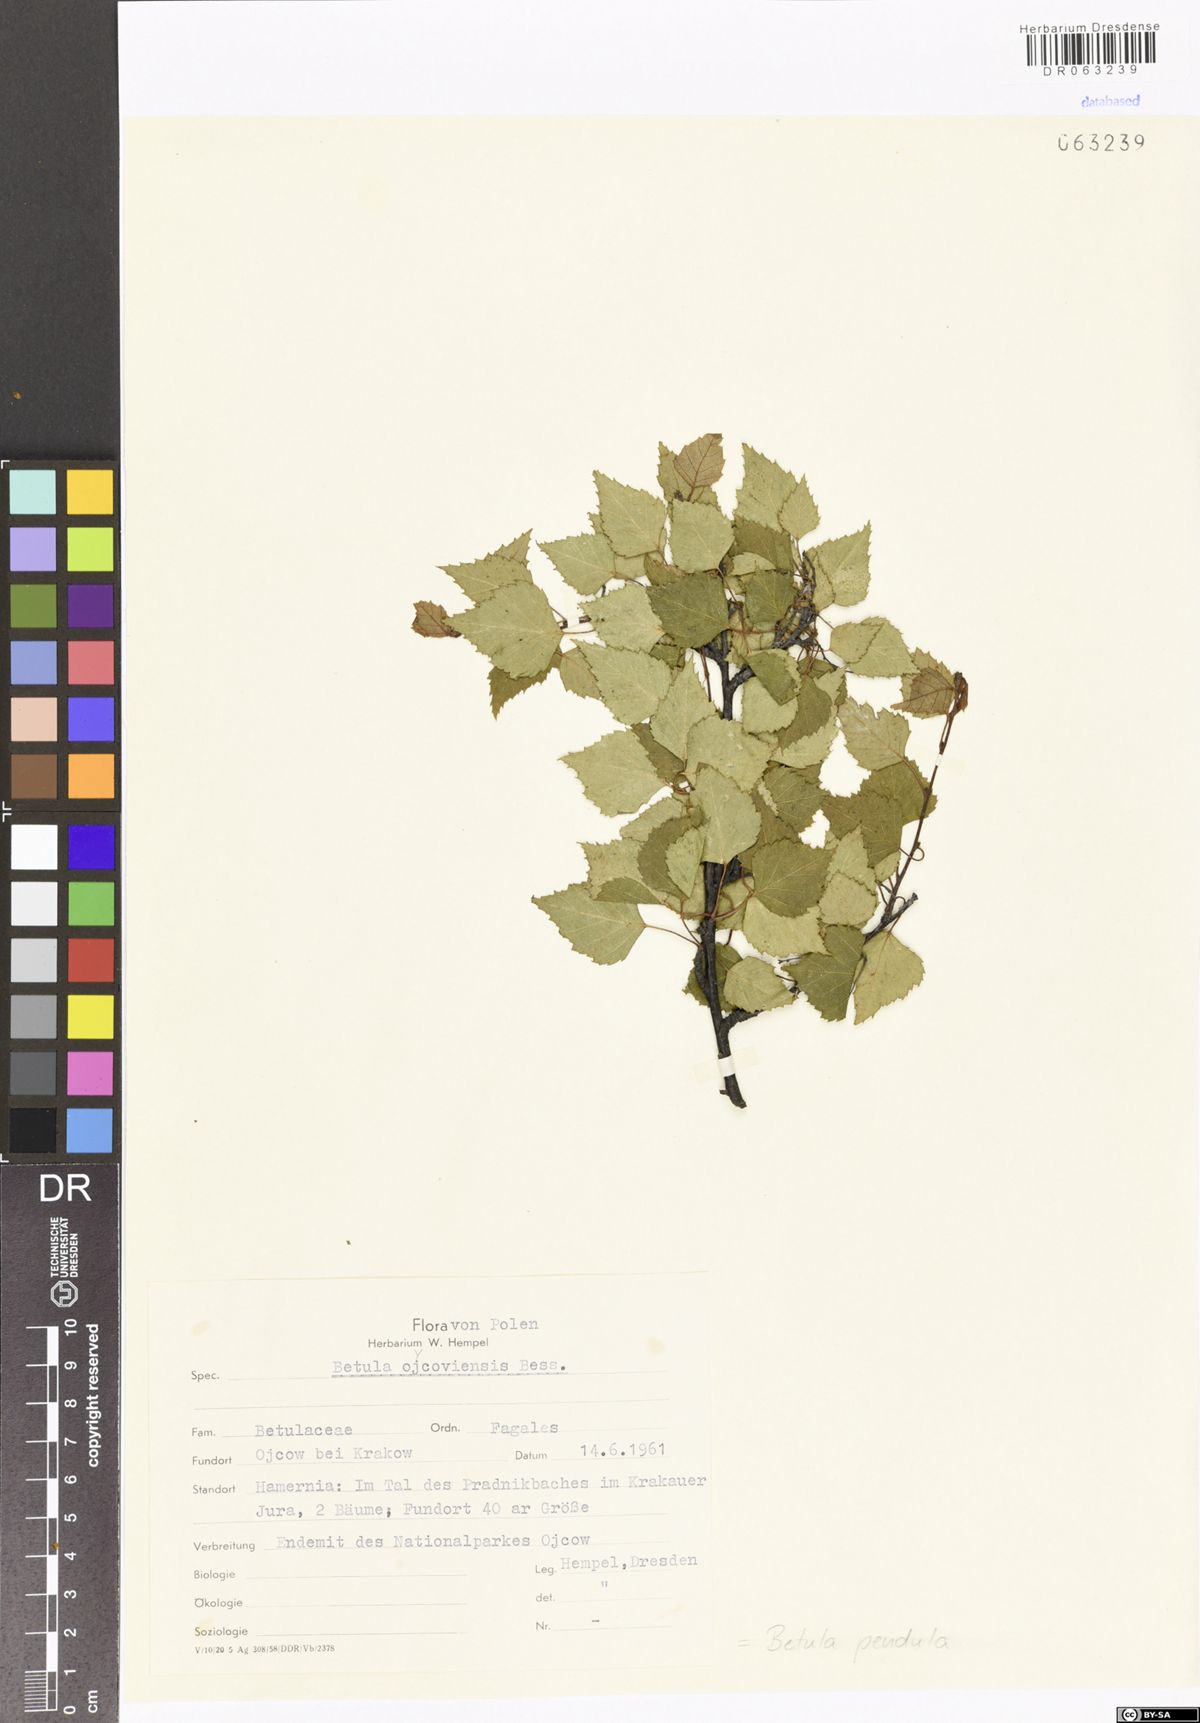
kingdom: Plantae
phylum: Tracheophyta
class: Magnoliopsida
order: Fagales
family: Betulaceae
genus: Betula
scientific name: Betula pendula
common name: Silver birch
